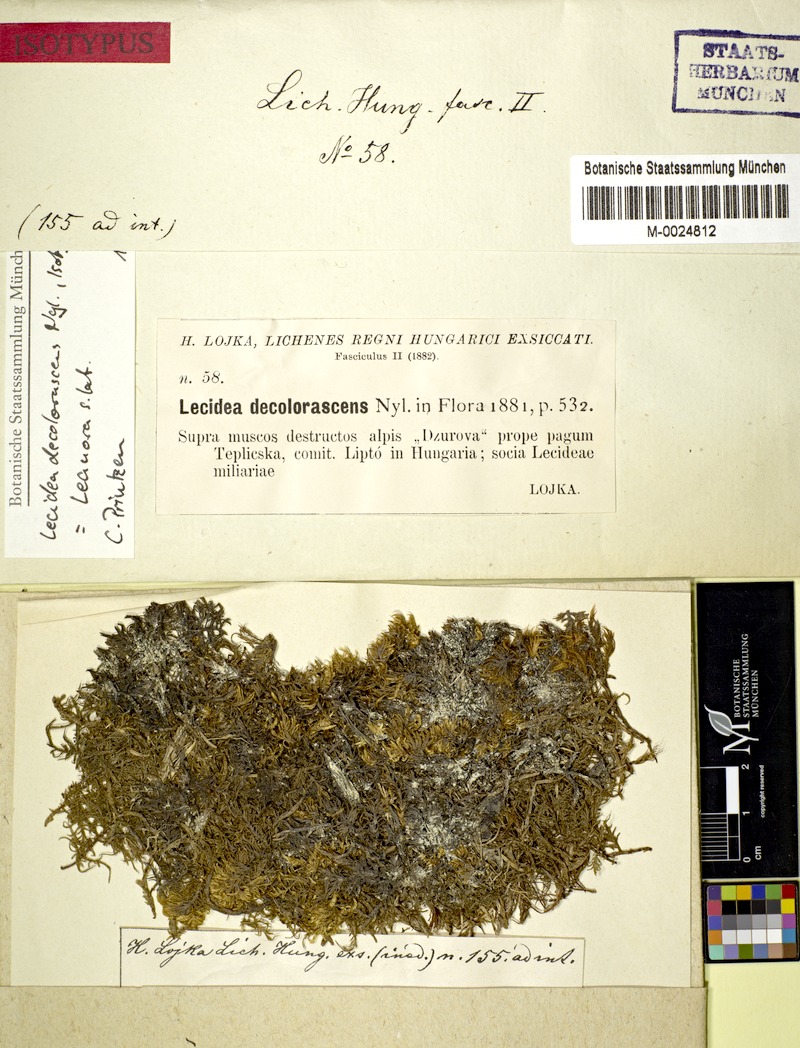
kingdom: Fungi
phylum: Ascomycota
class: Lecanoromycetes
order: Lecideales
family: Lecideaceae
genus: Lecidea
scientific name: Lecidea decolorascens
